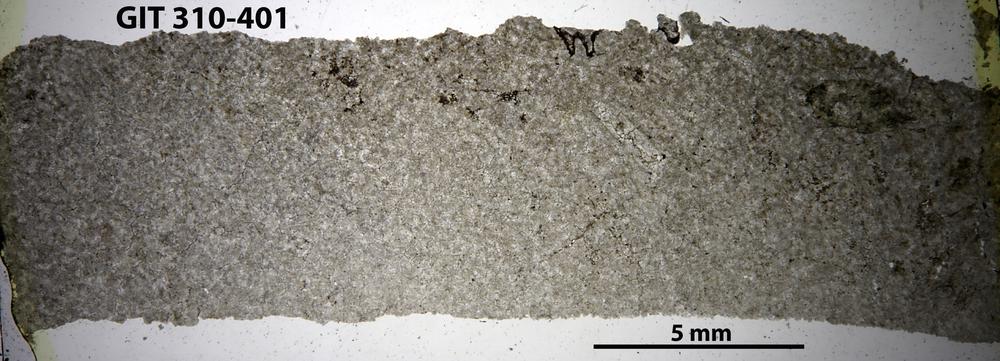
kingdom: Animalia
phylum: Porifera
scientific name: Porifera
